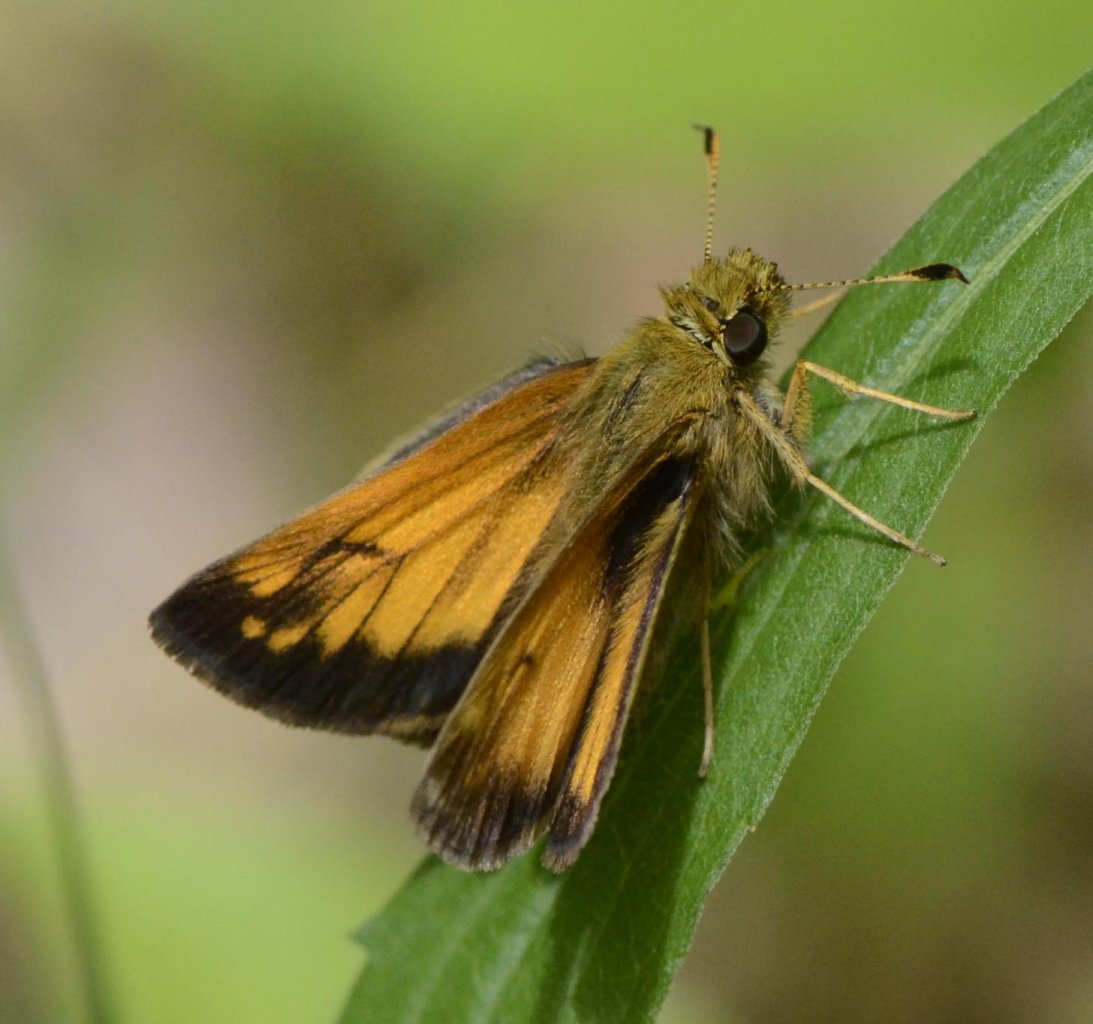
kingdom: Animalia
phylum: Arthropoda
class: Insecta
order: Lepidoptera
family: Hesperiidae
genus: Lon
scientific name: Lon hobomok
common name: Hobomok Skipper
